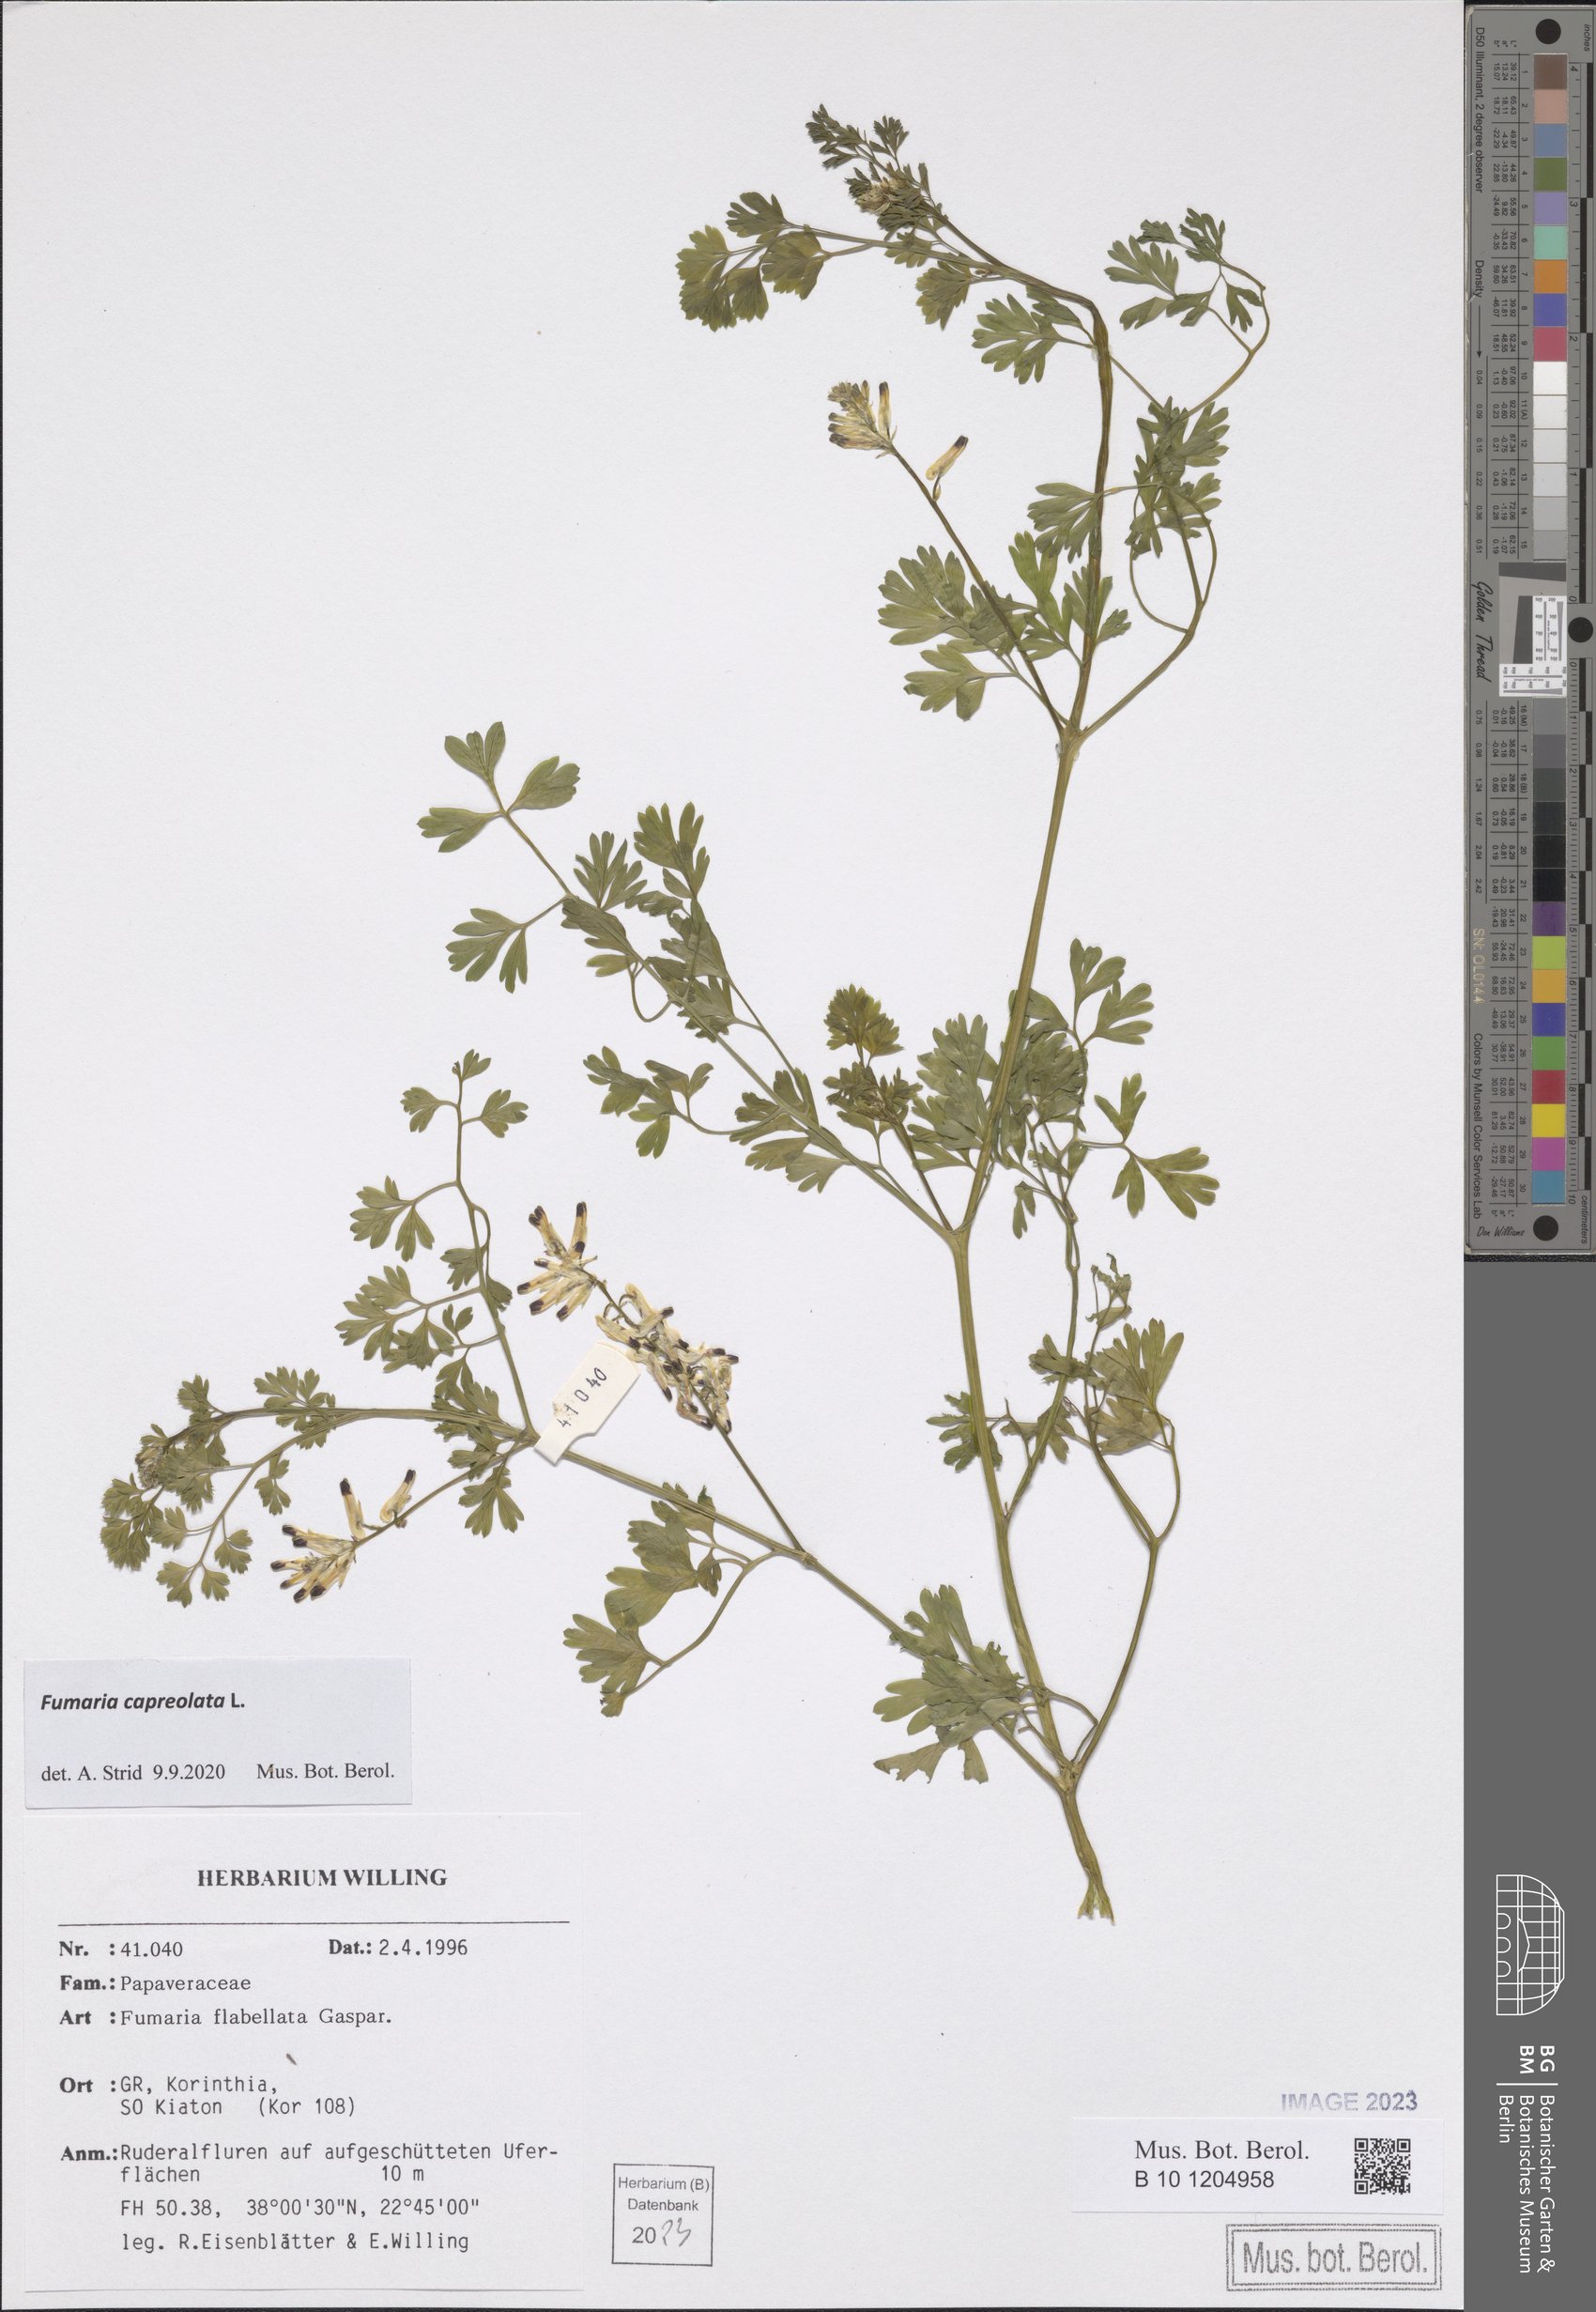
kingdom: Plantae
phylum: Tracheophyta
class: Magnoliopsida
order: Ranunculales
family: Papaveraceae
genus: Fumaria
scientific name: Fumaria capreolata
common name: White ramping-fumitory
